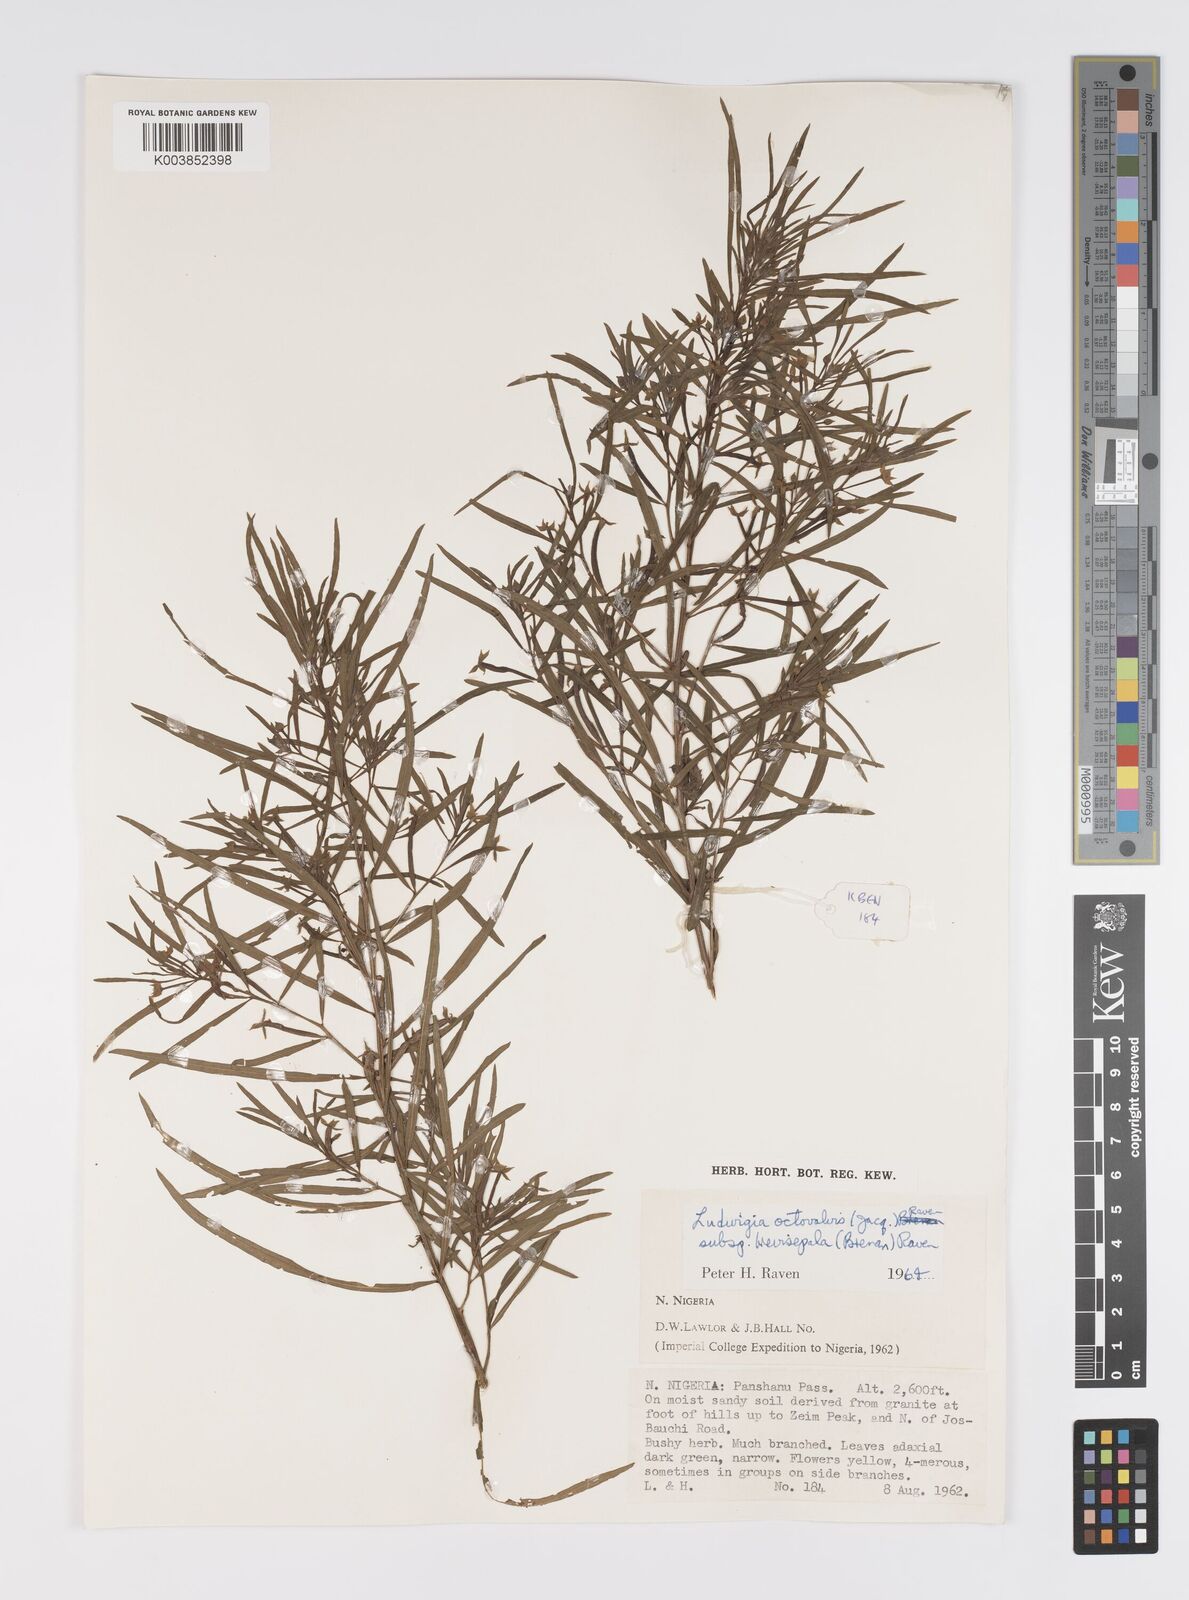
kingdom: Plantae
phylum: Tracheophyta
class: Magnoliopsida
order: Myrtales
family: Onagraceae
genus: Ludwigia
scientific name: Ludwigia octovalvis
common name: Water-primrose
